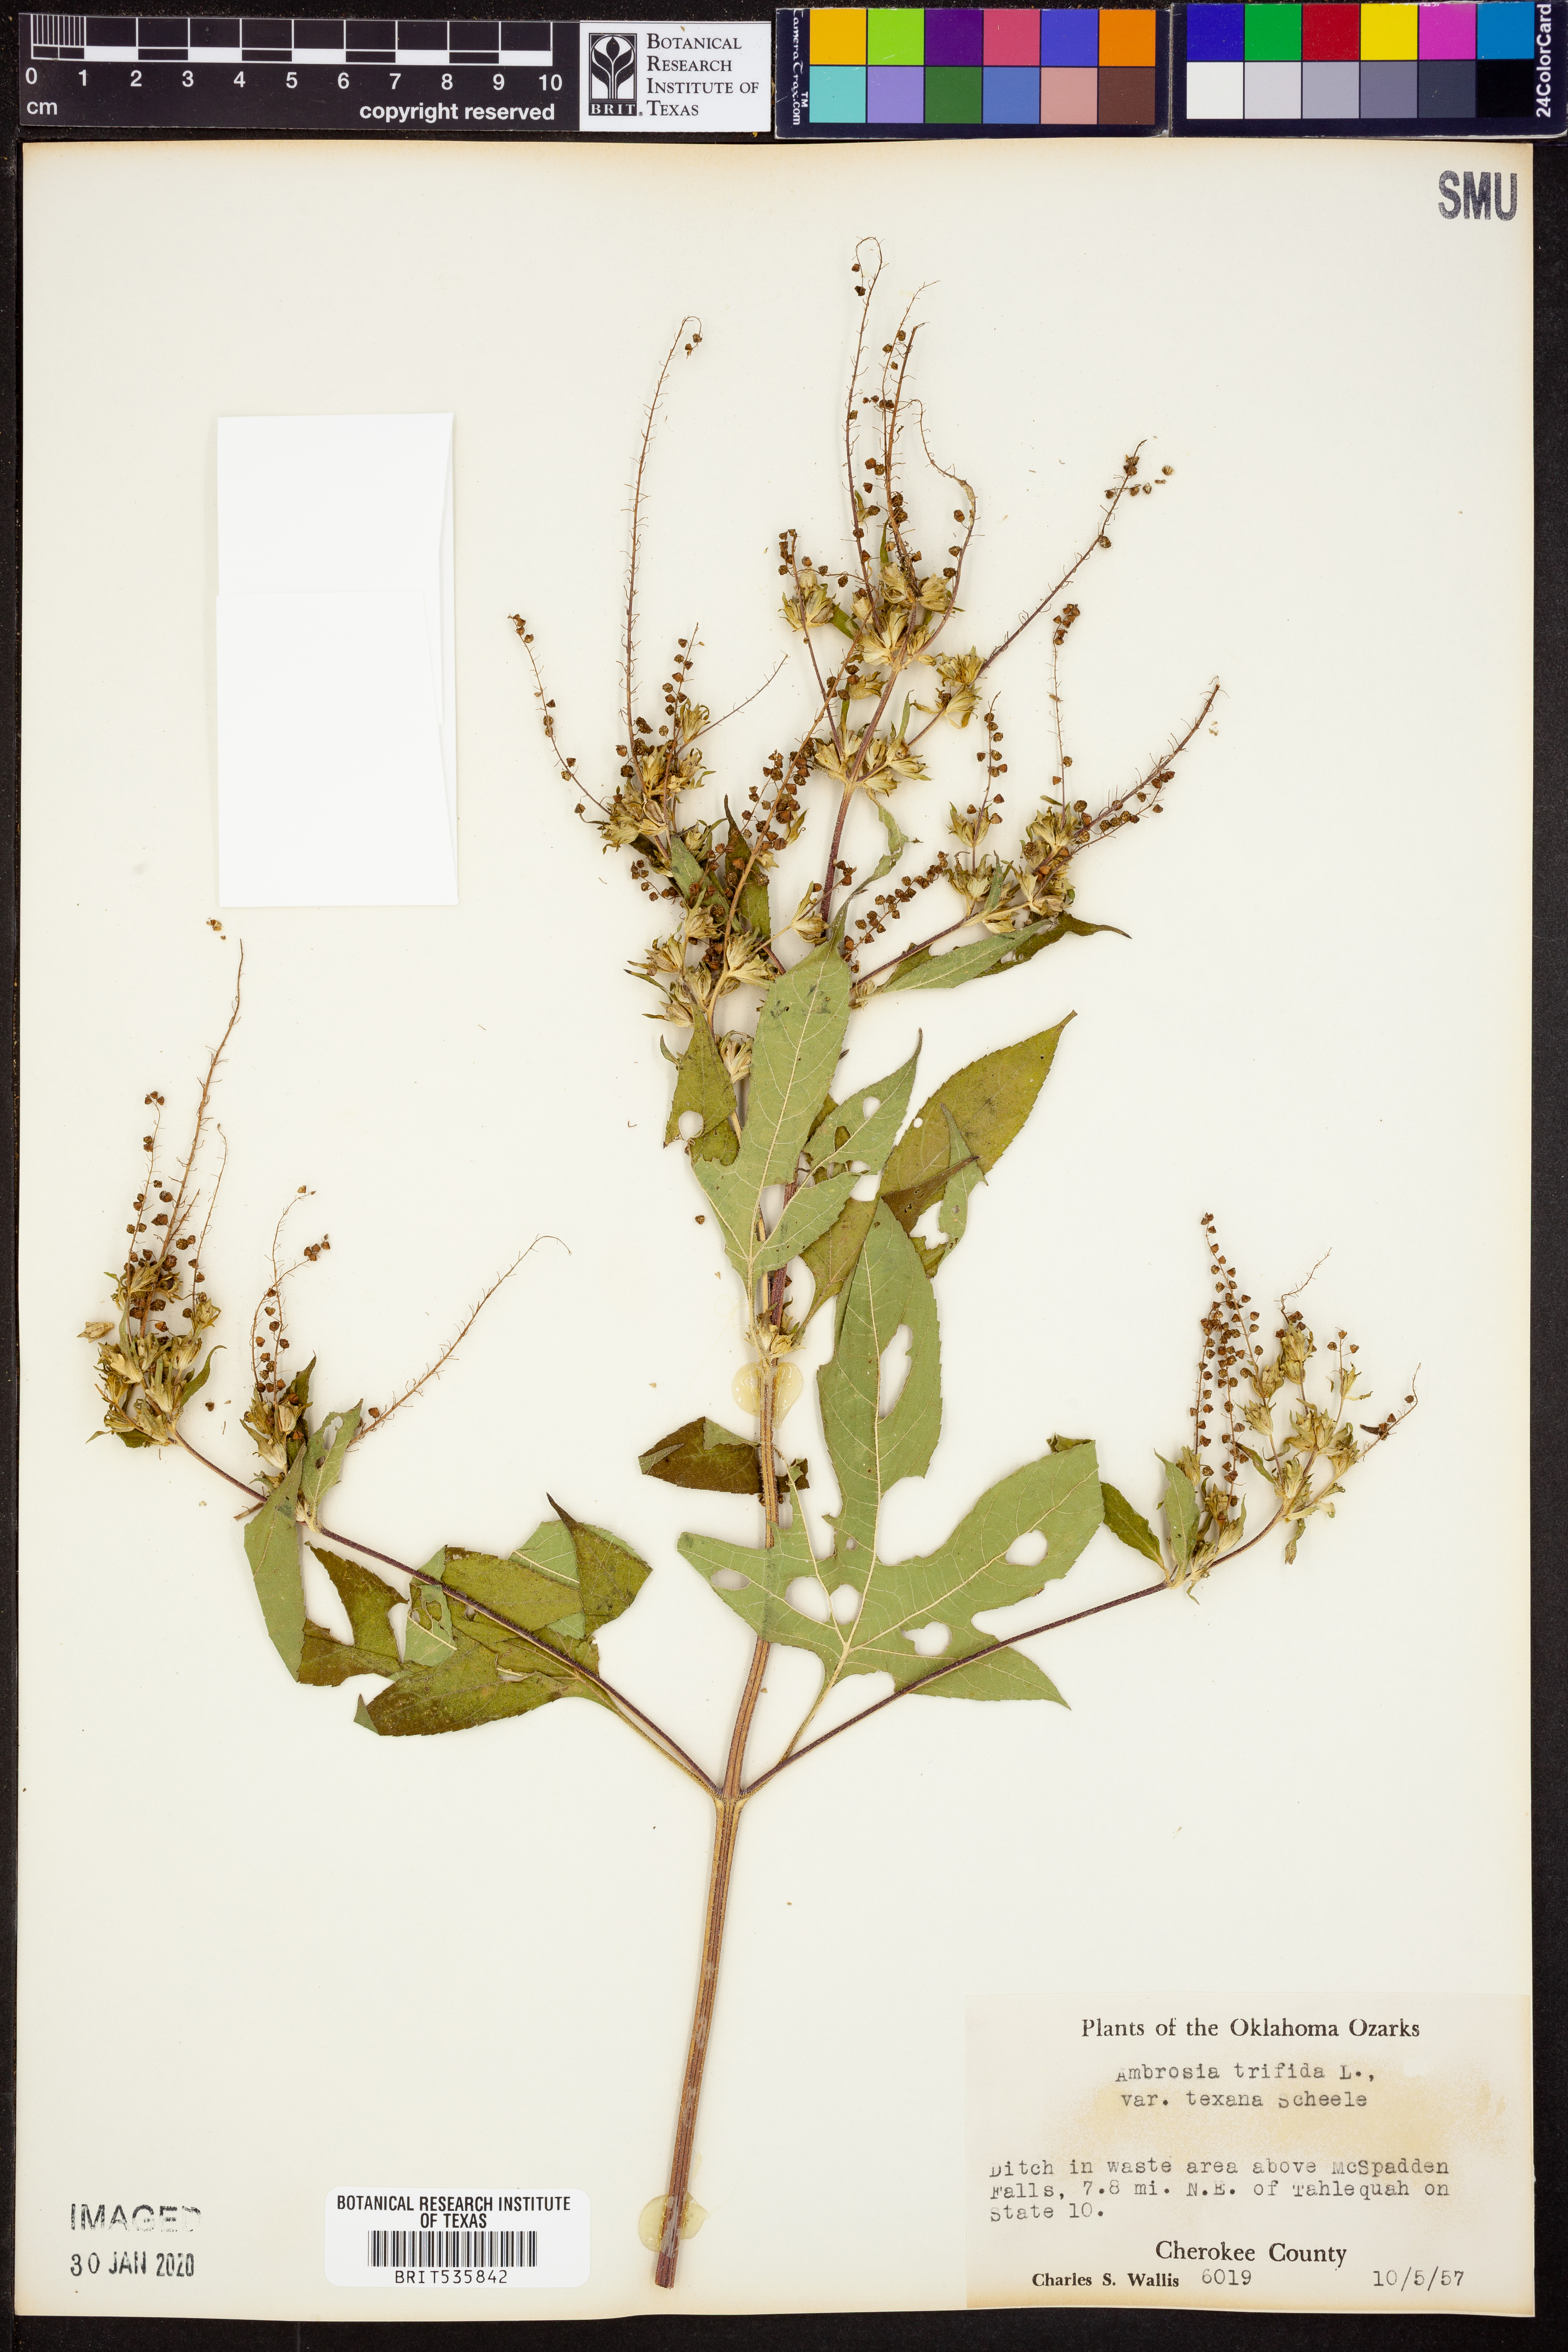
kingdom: Plantae
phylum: Tracheophyta
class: Magnoliopsida
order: Asterales
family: Asteraceae
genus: Ambrosia
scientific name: Ambrosia trifida
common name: Giant ragweed
